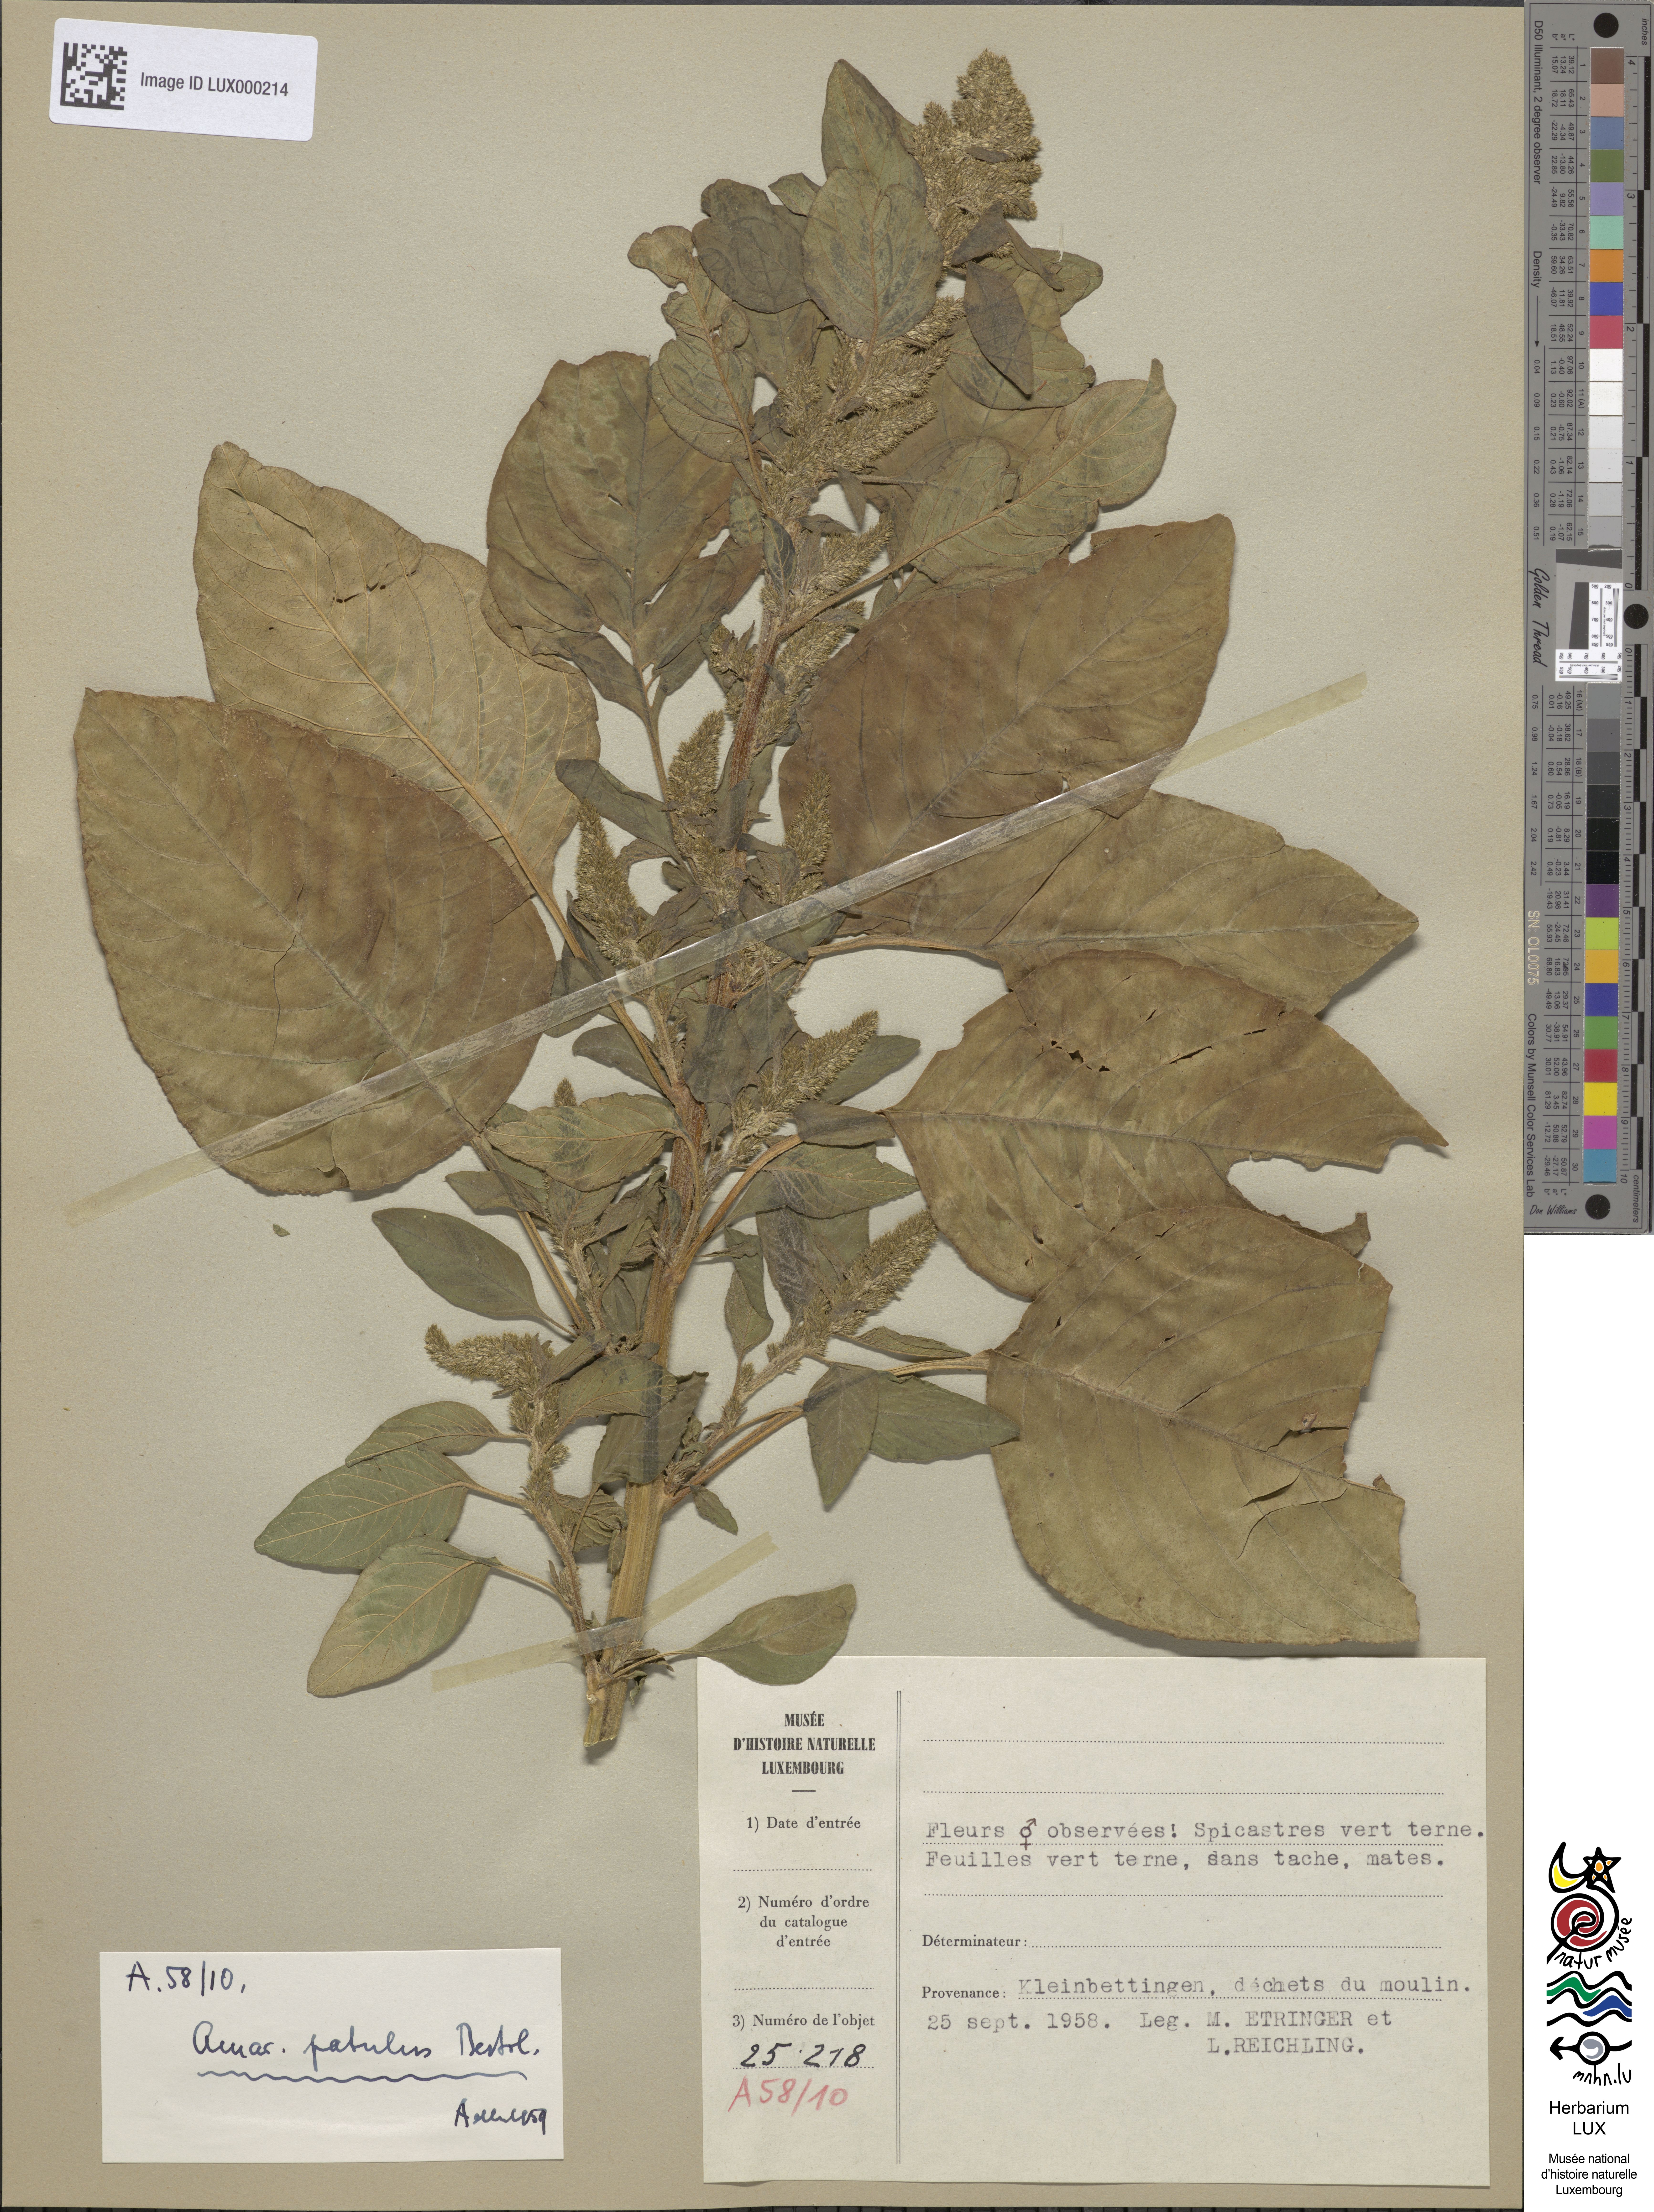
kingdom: Plantae
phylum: Tracheophyta
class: Magnoliopsida
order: Caryophyllales
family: Amaranthaceae
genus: Amaranthus
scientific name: Amaranthus hybridus
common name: Green amaranth
